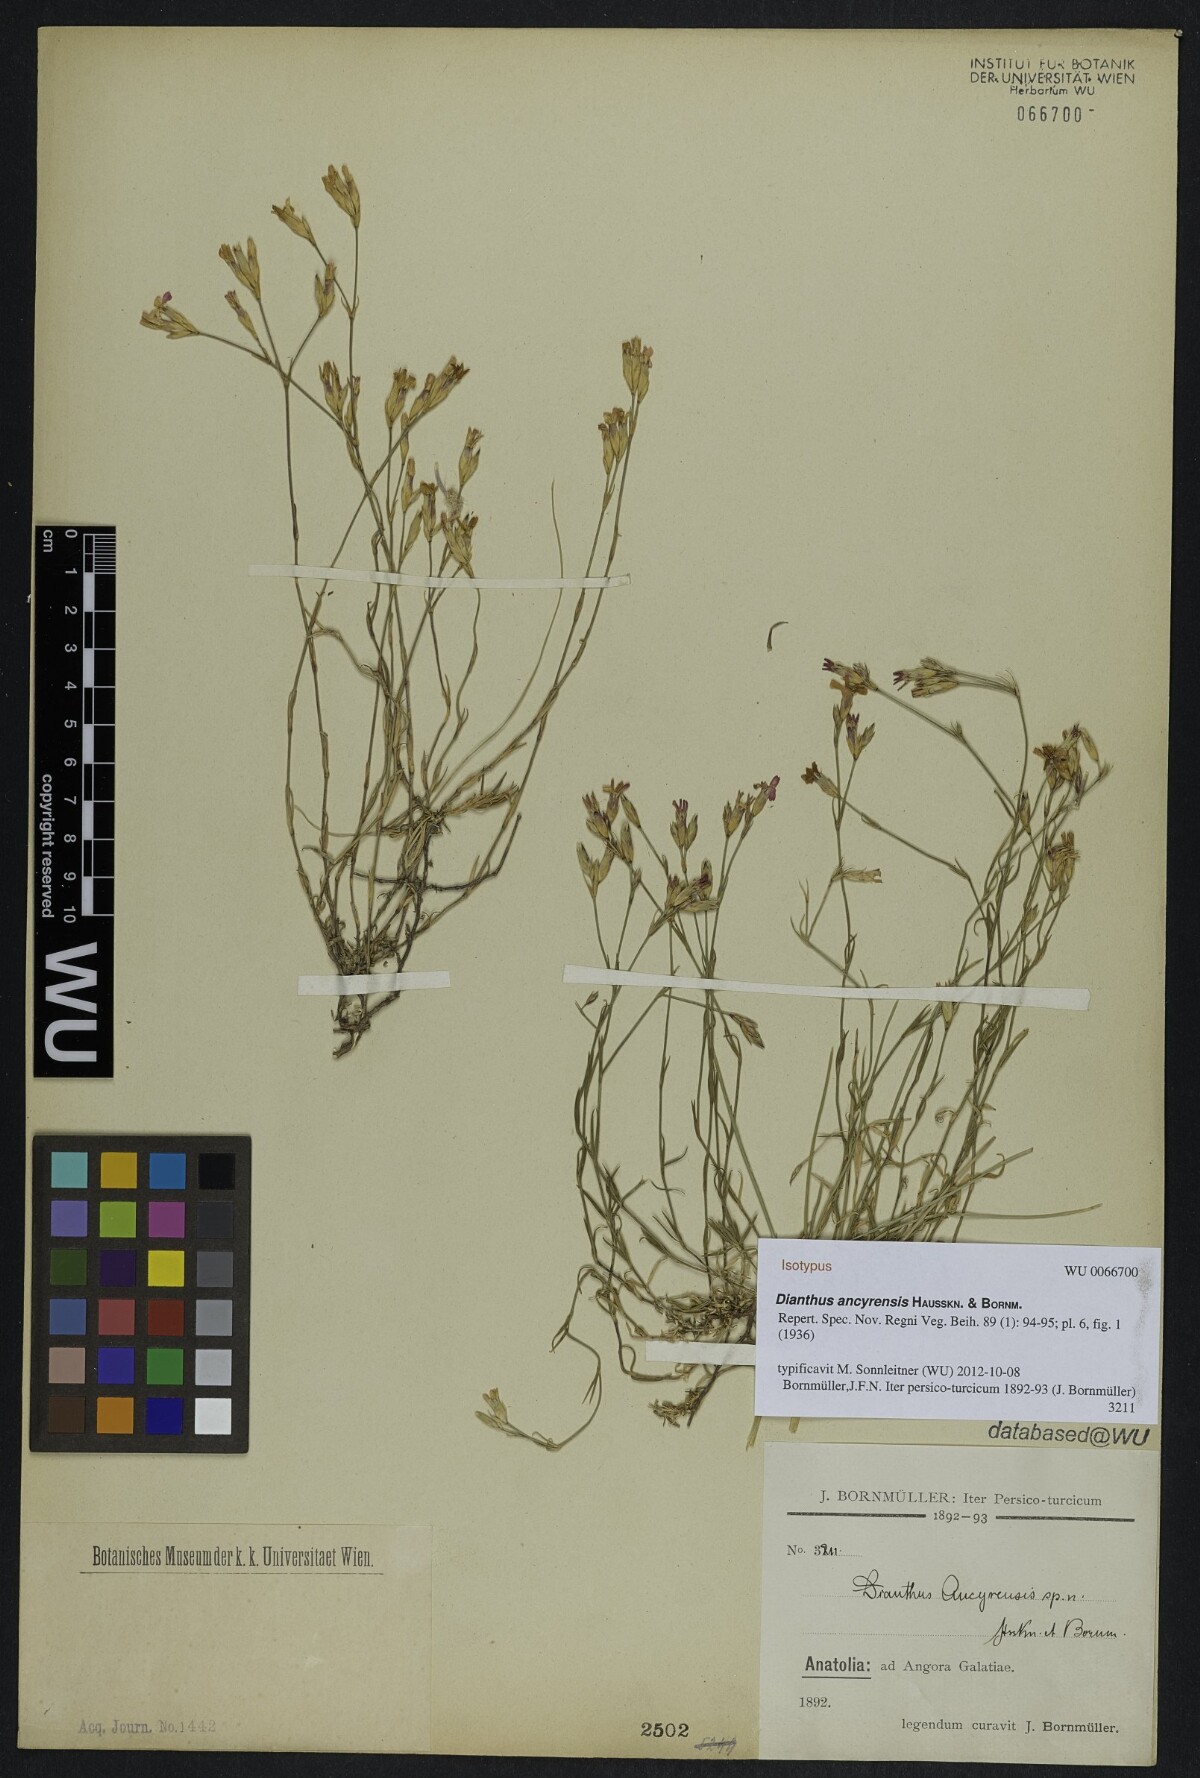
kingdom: Plantae
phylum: Tracheophyta
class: Magnoliopsida
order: Caryophyllales
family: Caryophyllaceae
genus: Dianthus
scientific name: Dianthus ancyrensis
